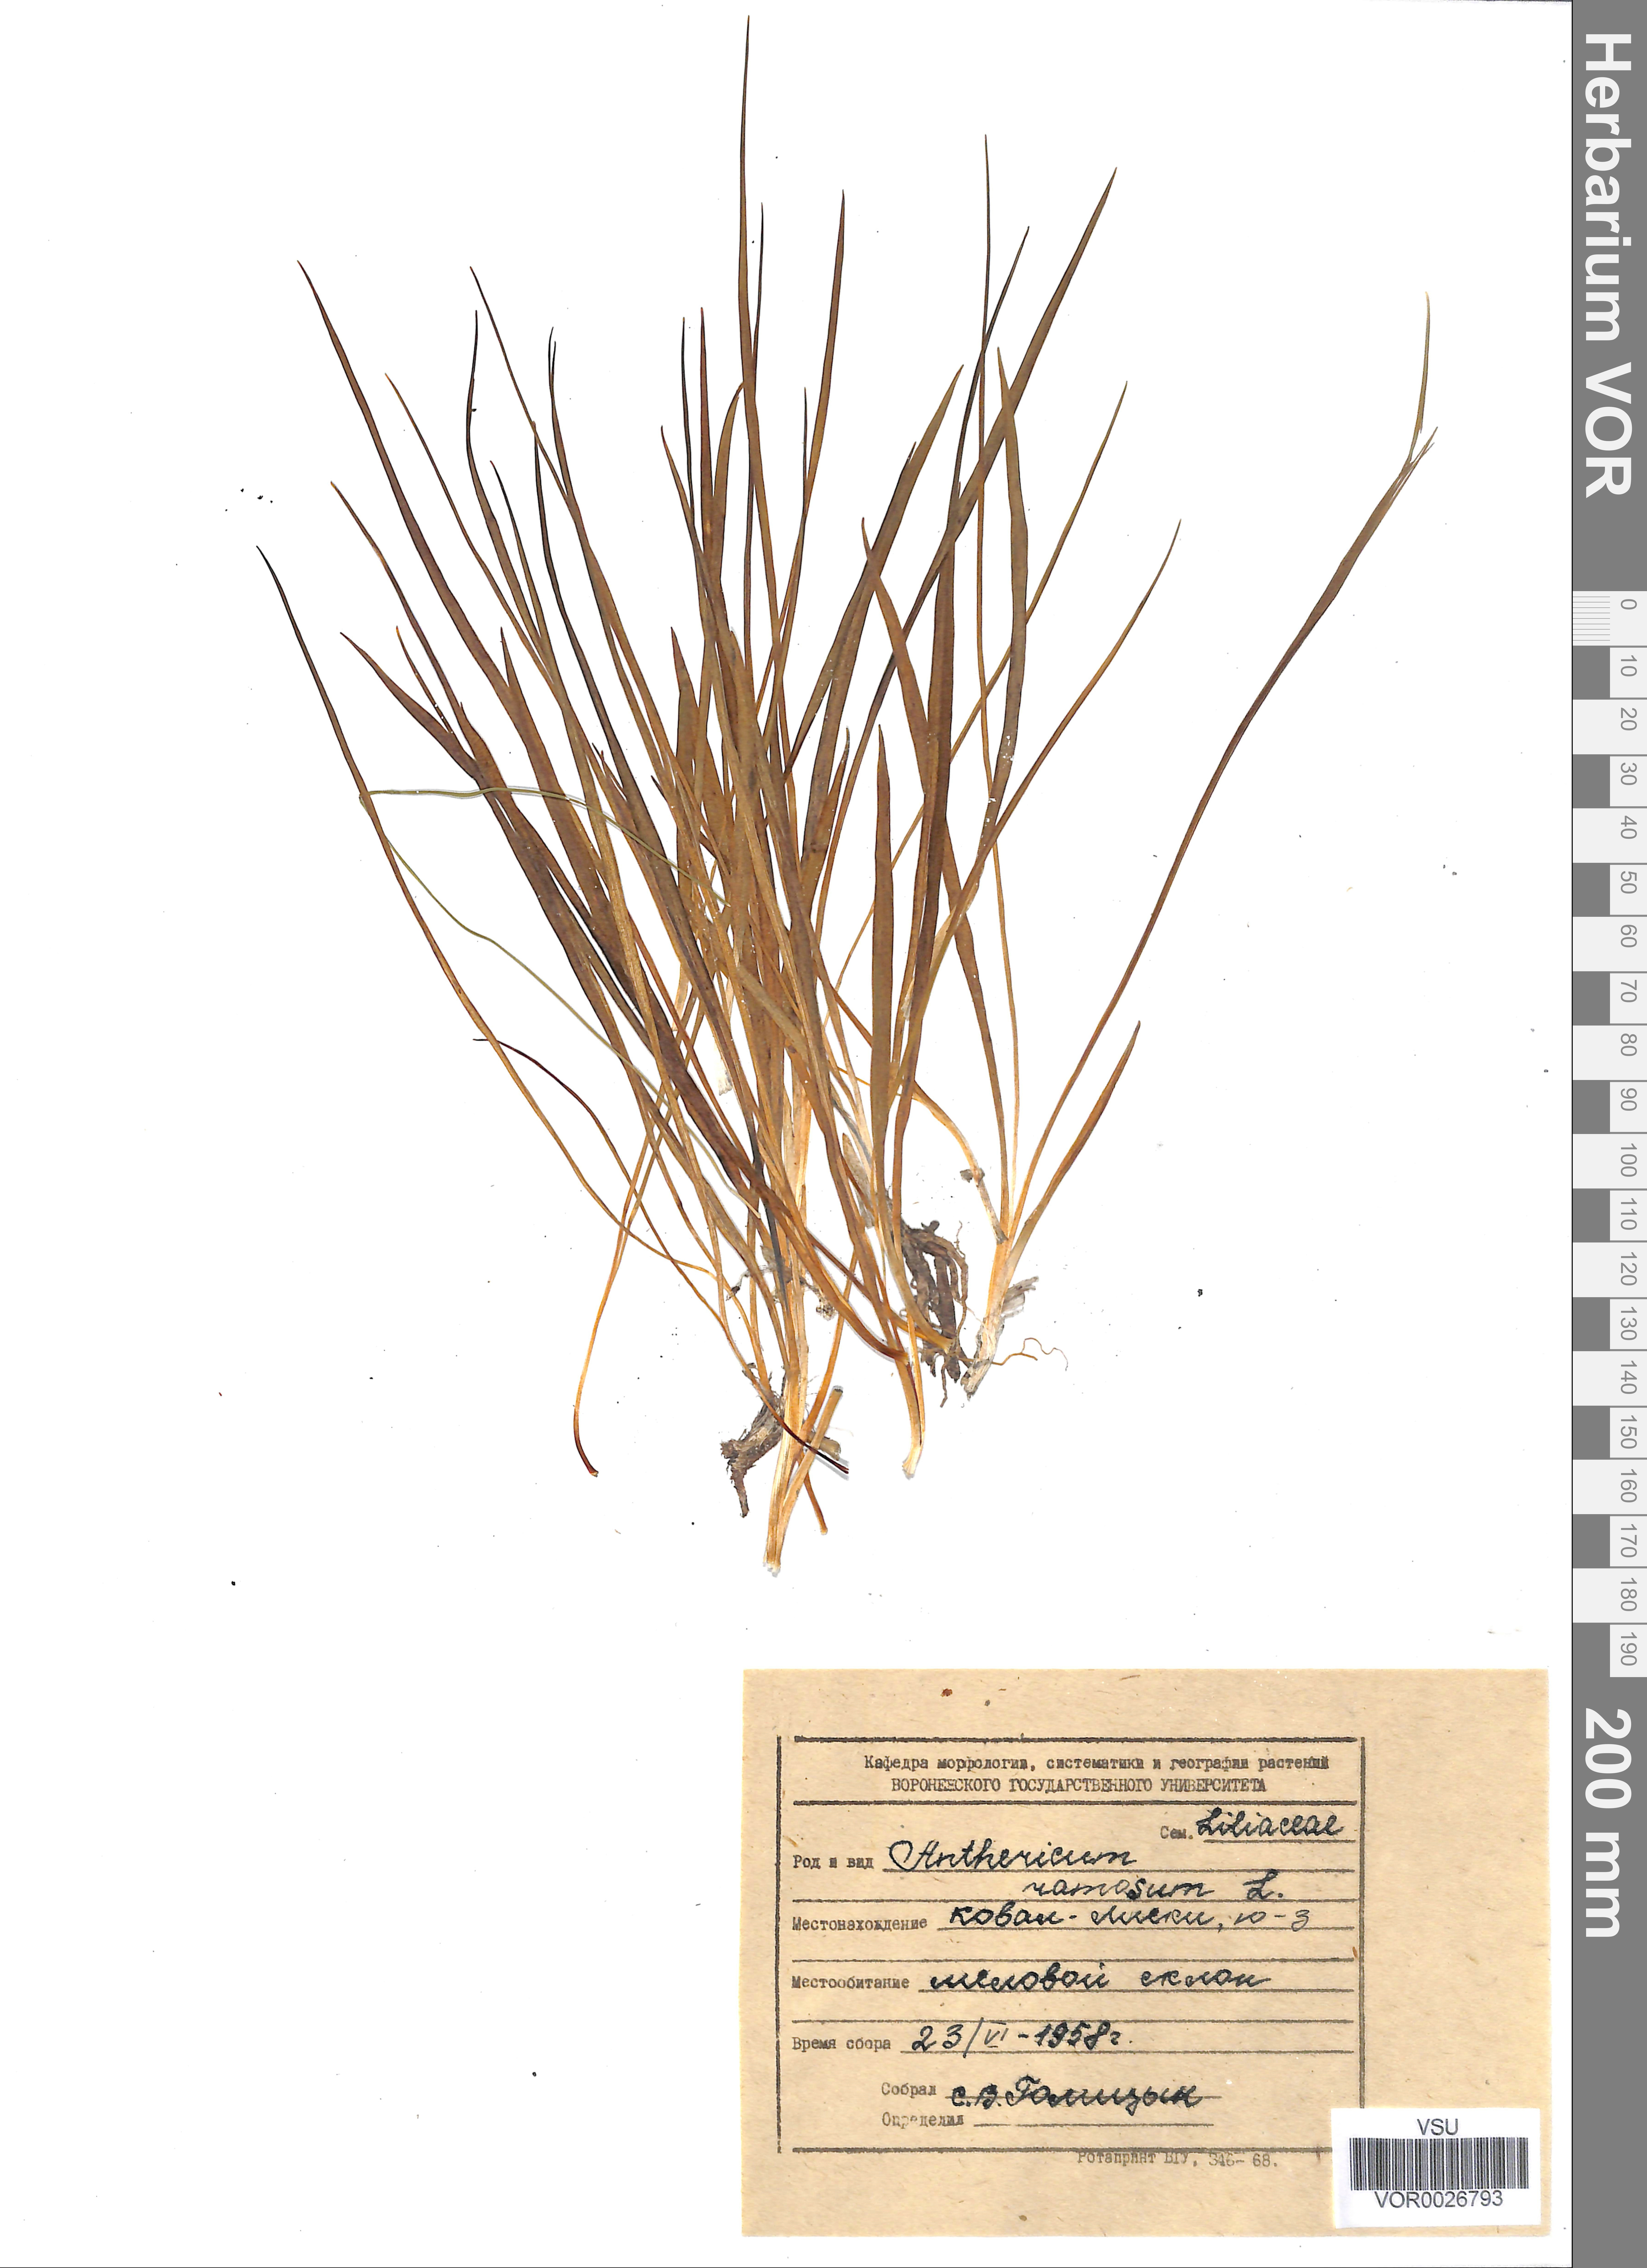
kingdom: Plantae
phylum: Tracheophyta
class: Liliopsida
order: Asparagales
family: Asparagaceae
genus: Anthericum
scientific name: Anthericum ramosum
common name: Branched st. bernard's-lily
